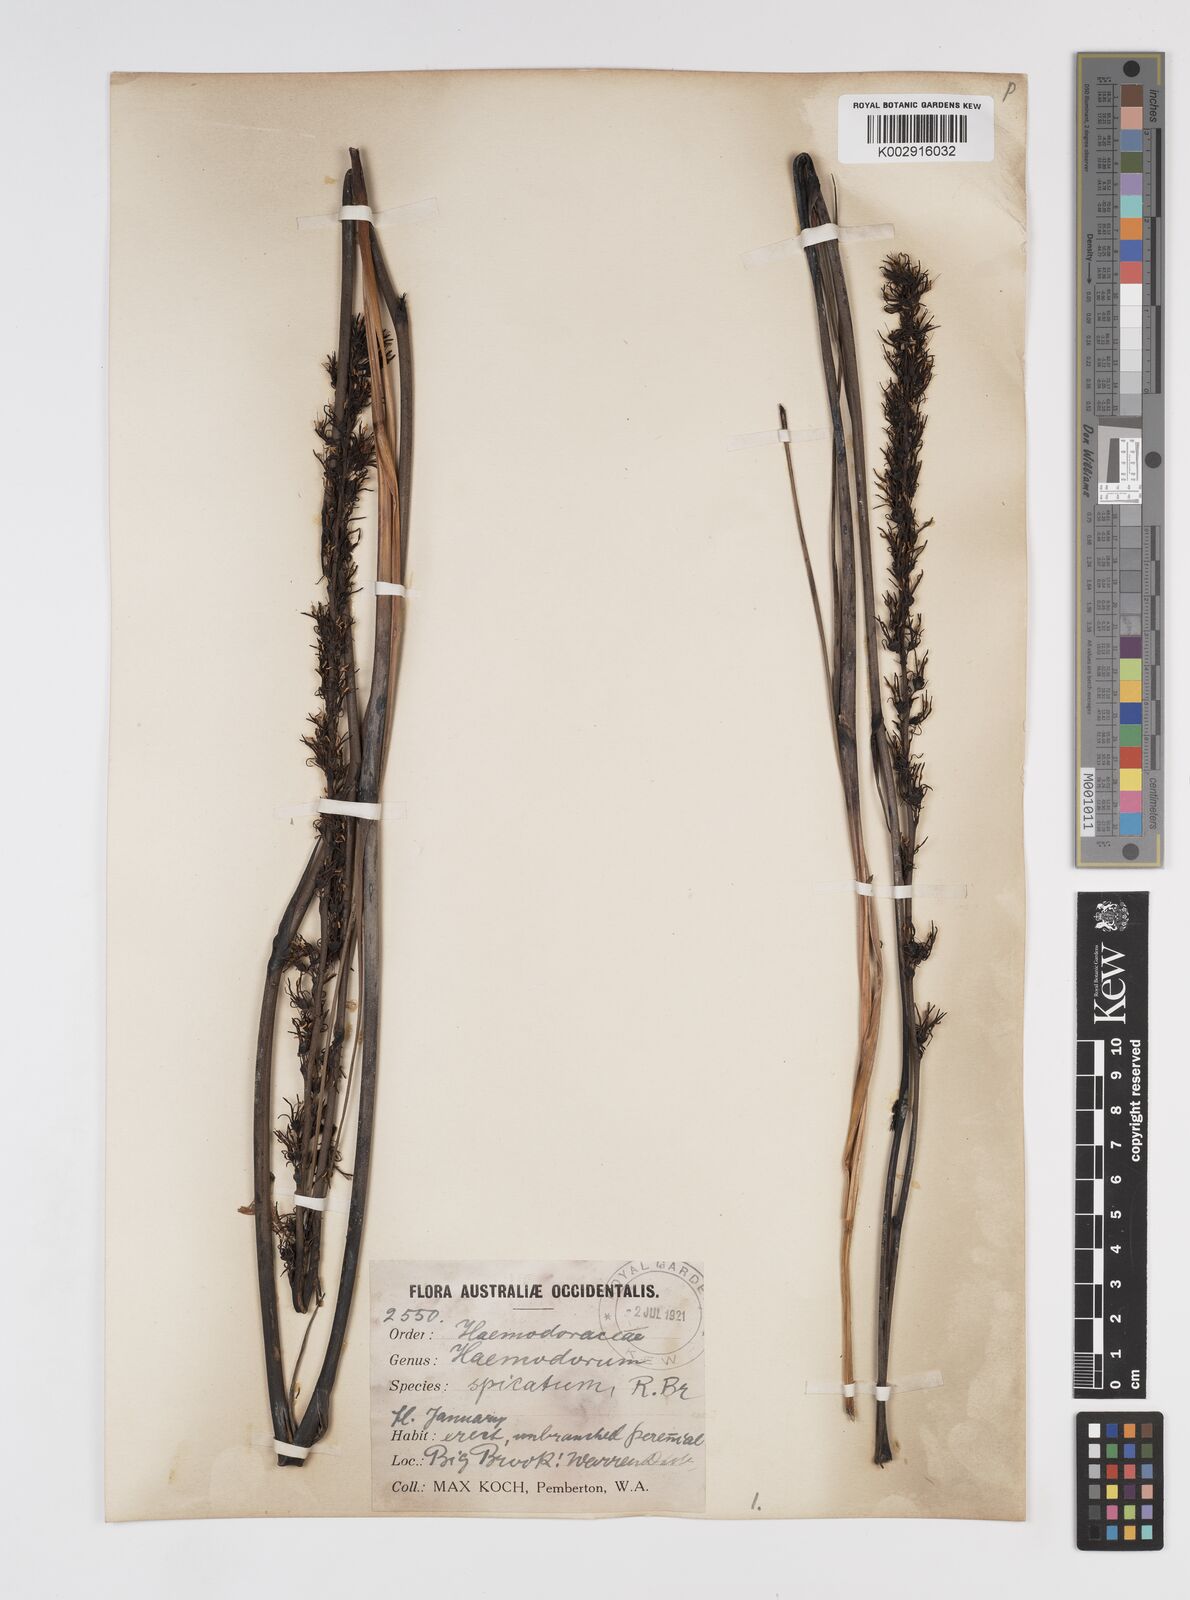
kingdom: Plantae
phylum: Tracheophyta
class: Liliopsida
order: Commelinales
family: Haemodoraceae
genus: Haemodorum
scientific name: Haemodorum spicatum
